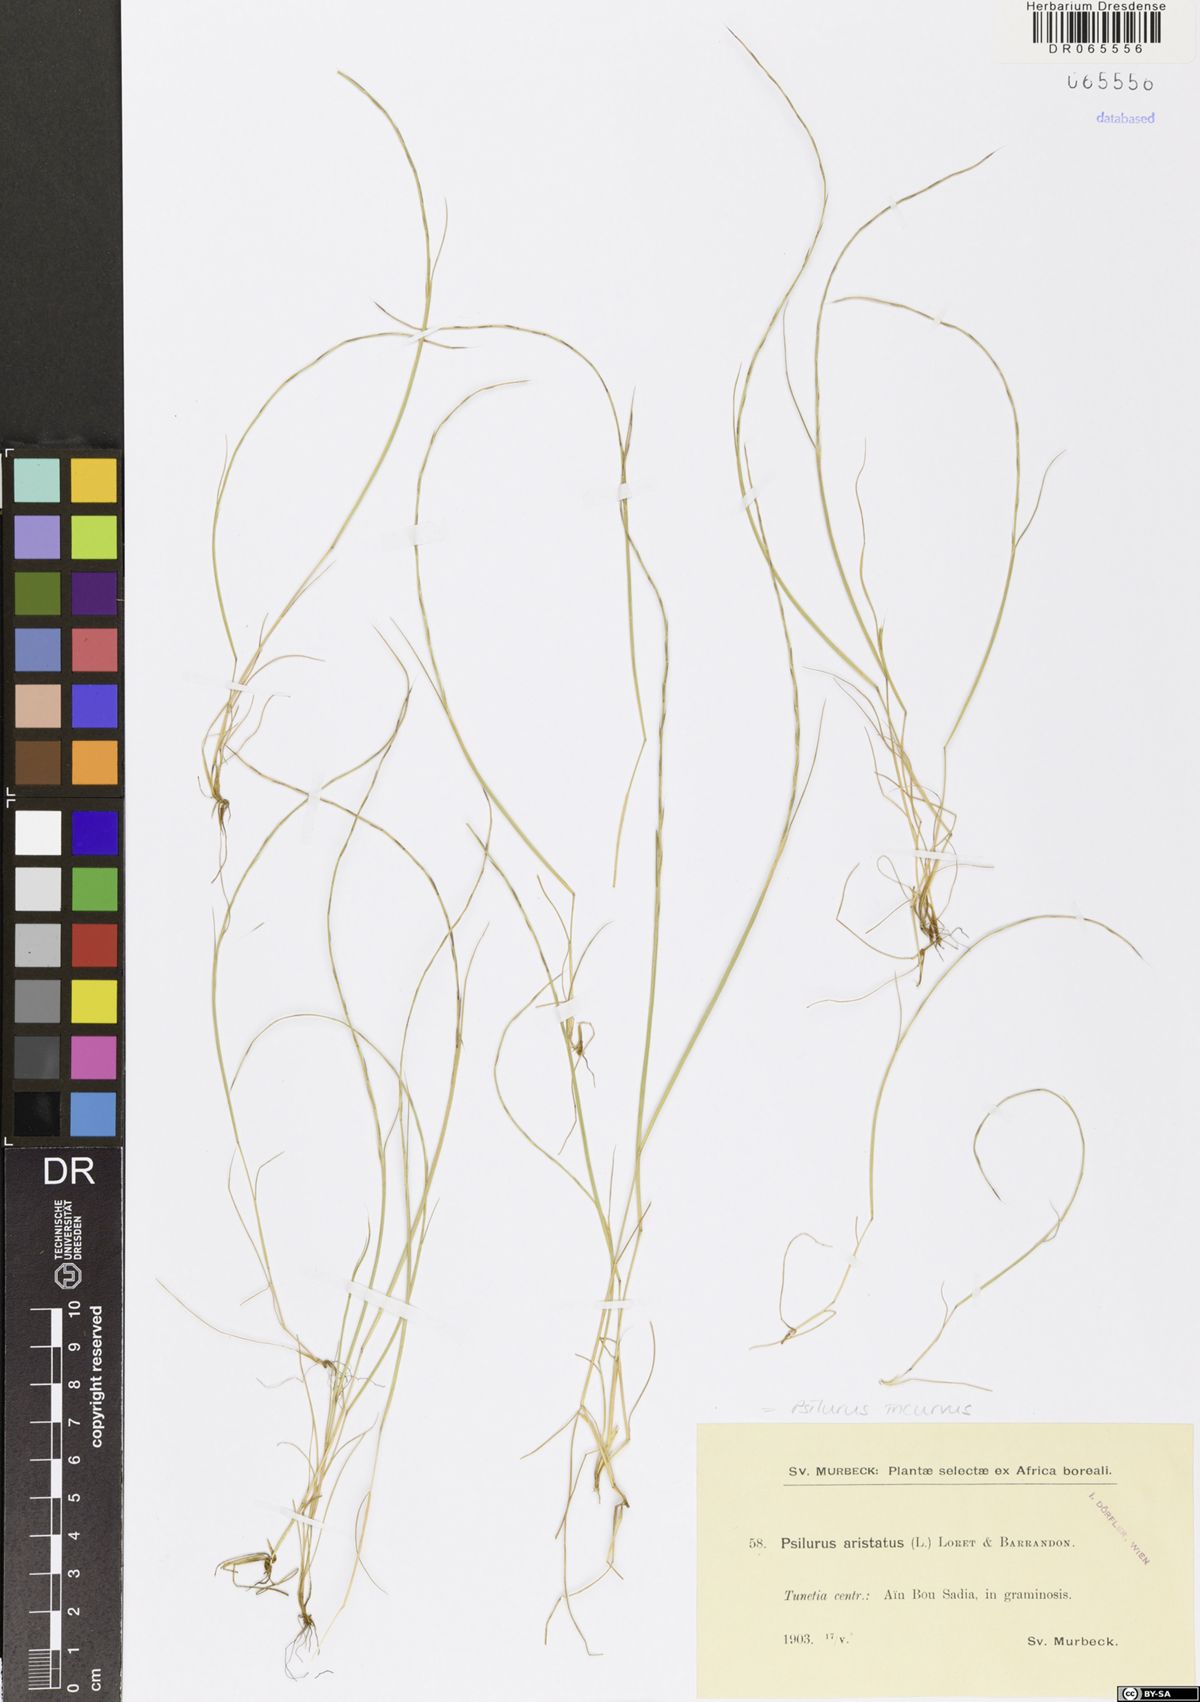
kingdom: Plantae
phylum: Tracheophyta
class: Liliopsida
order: Poales
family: Poaceae
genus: Festuca
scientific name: Festuca incurva
